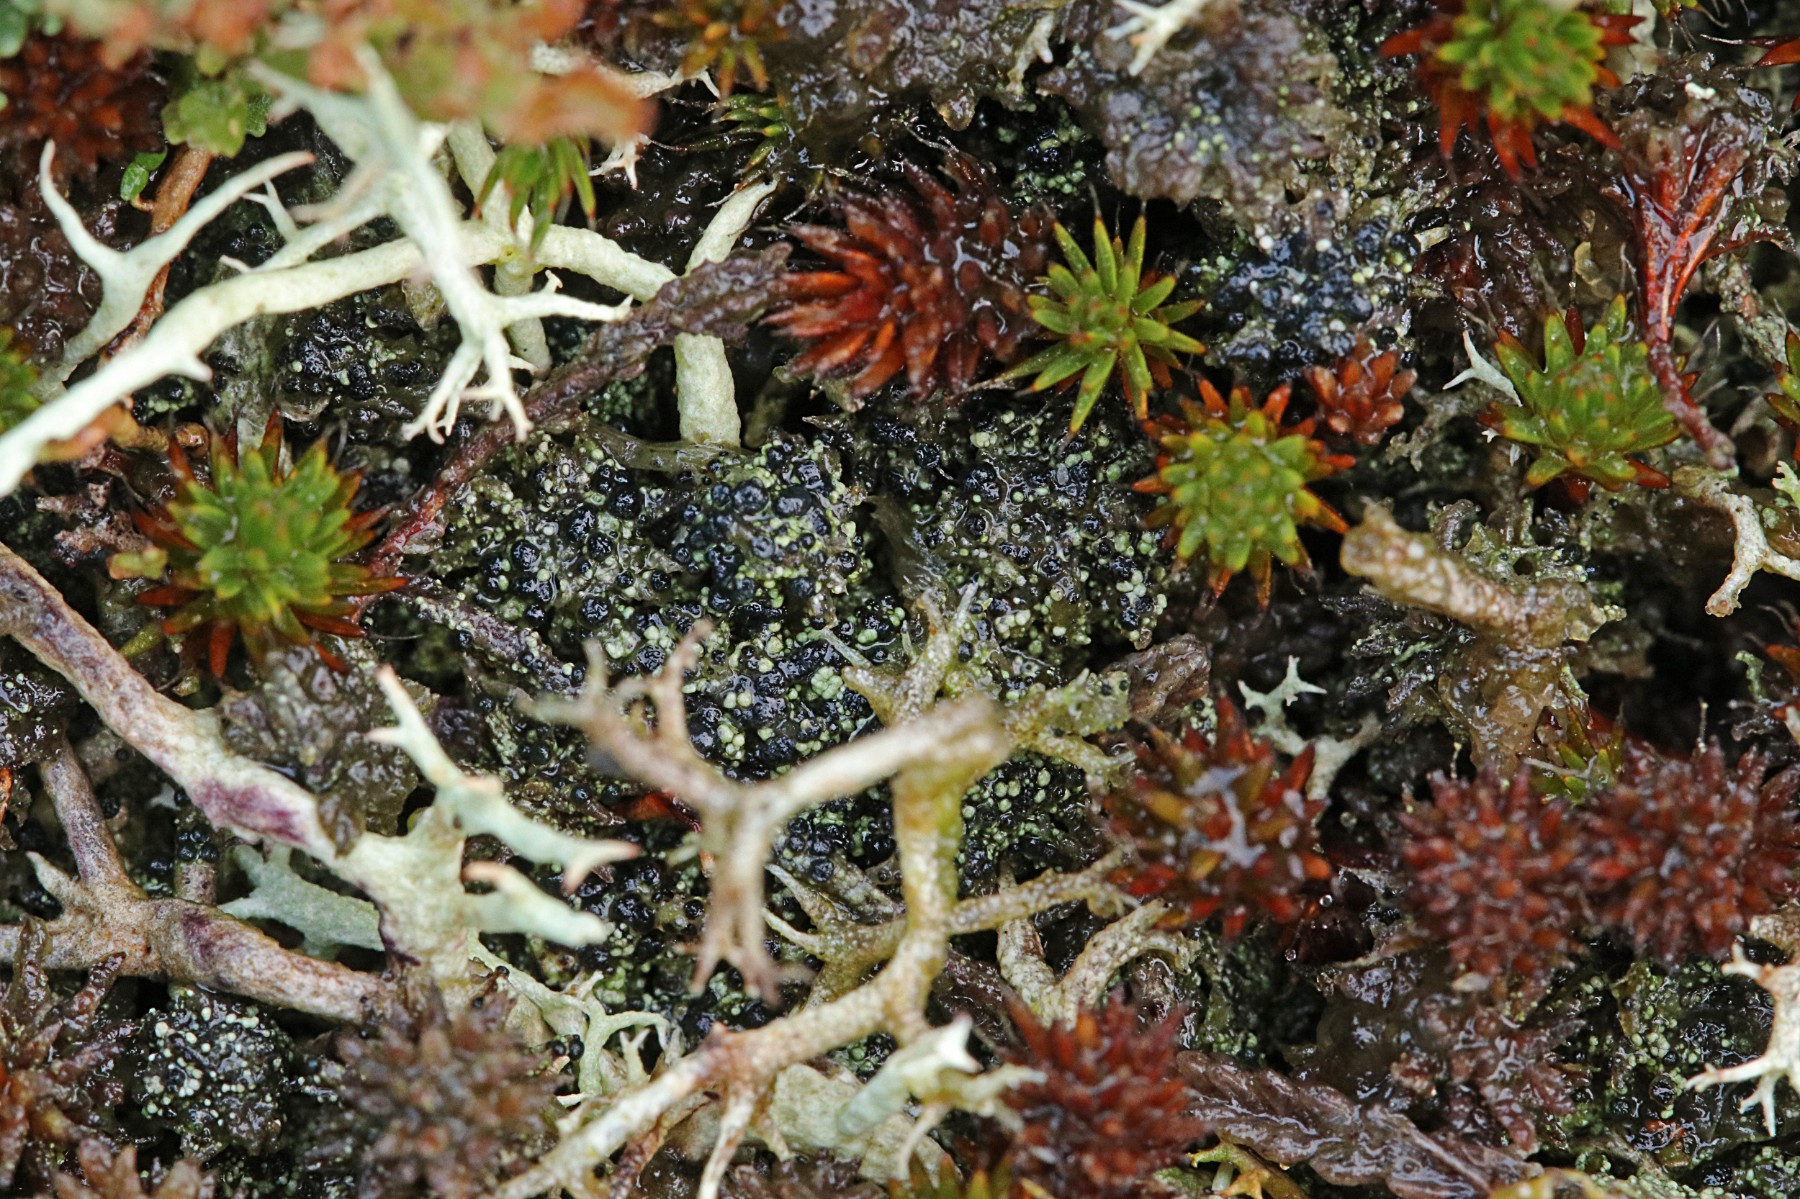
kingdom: Fungi
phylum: Ascomycota
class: Lecanoromycetes
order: Lecanorales
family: Byssolomataceae
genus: Micarea
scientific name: Micarea lignaria
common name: tørve-knaplav
